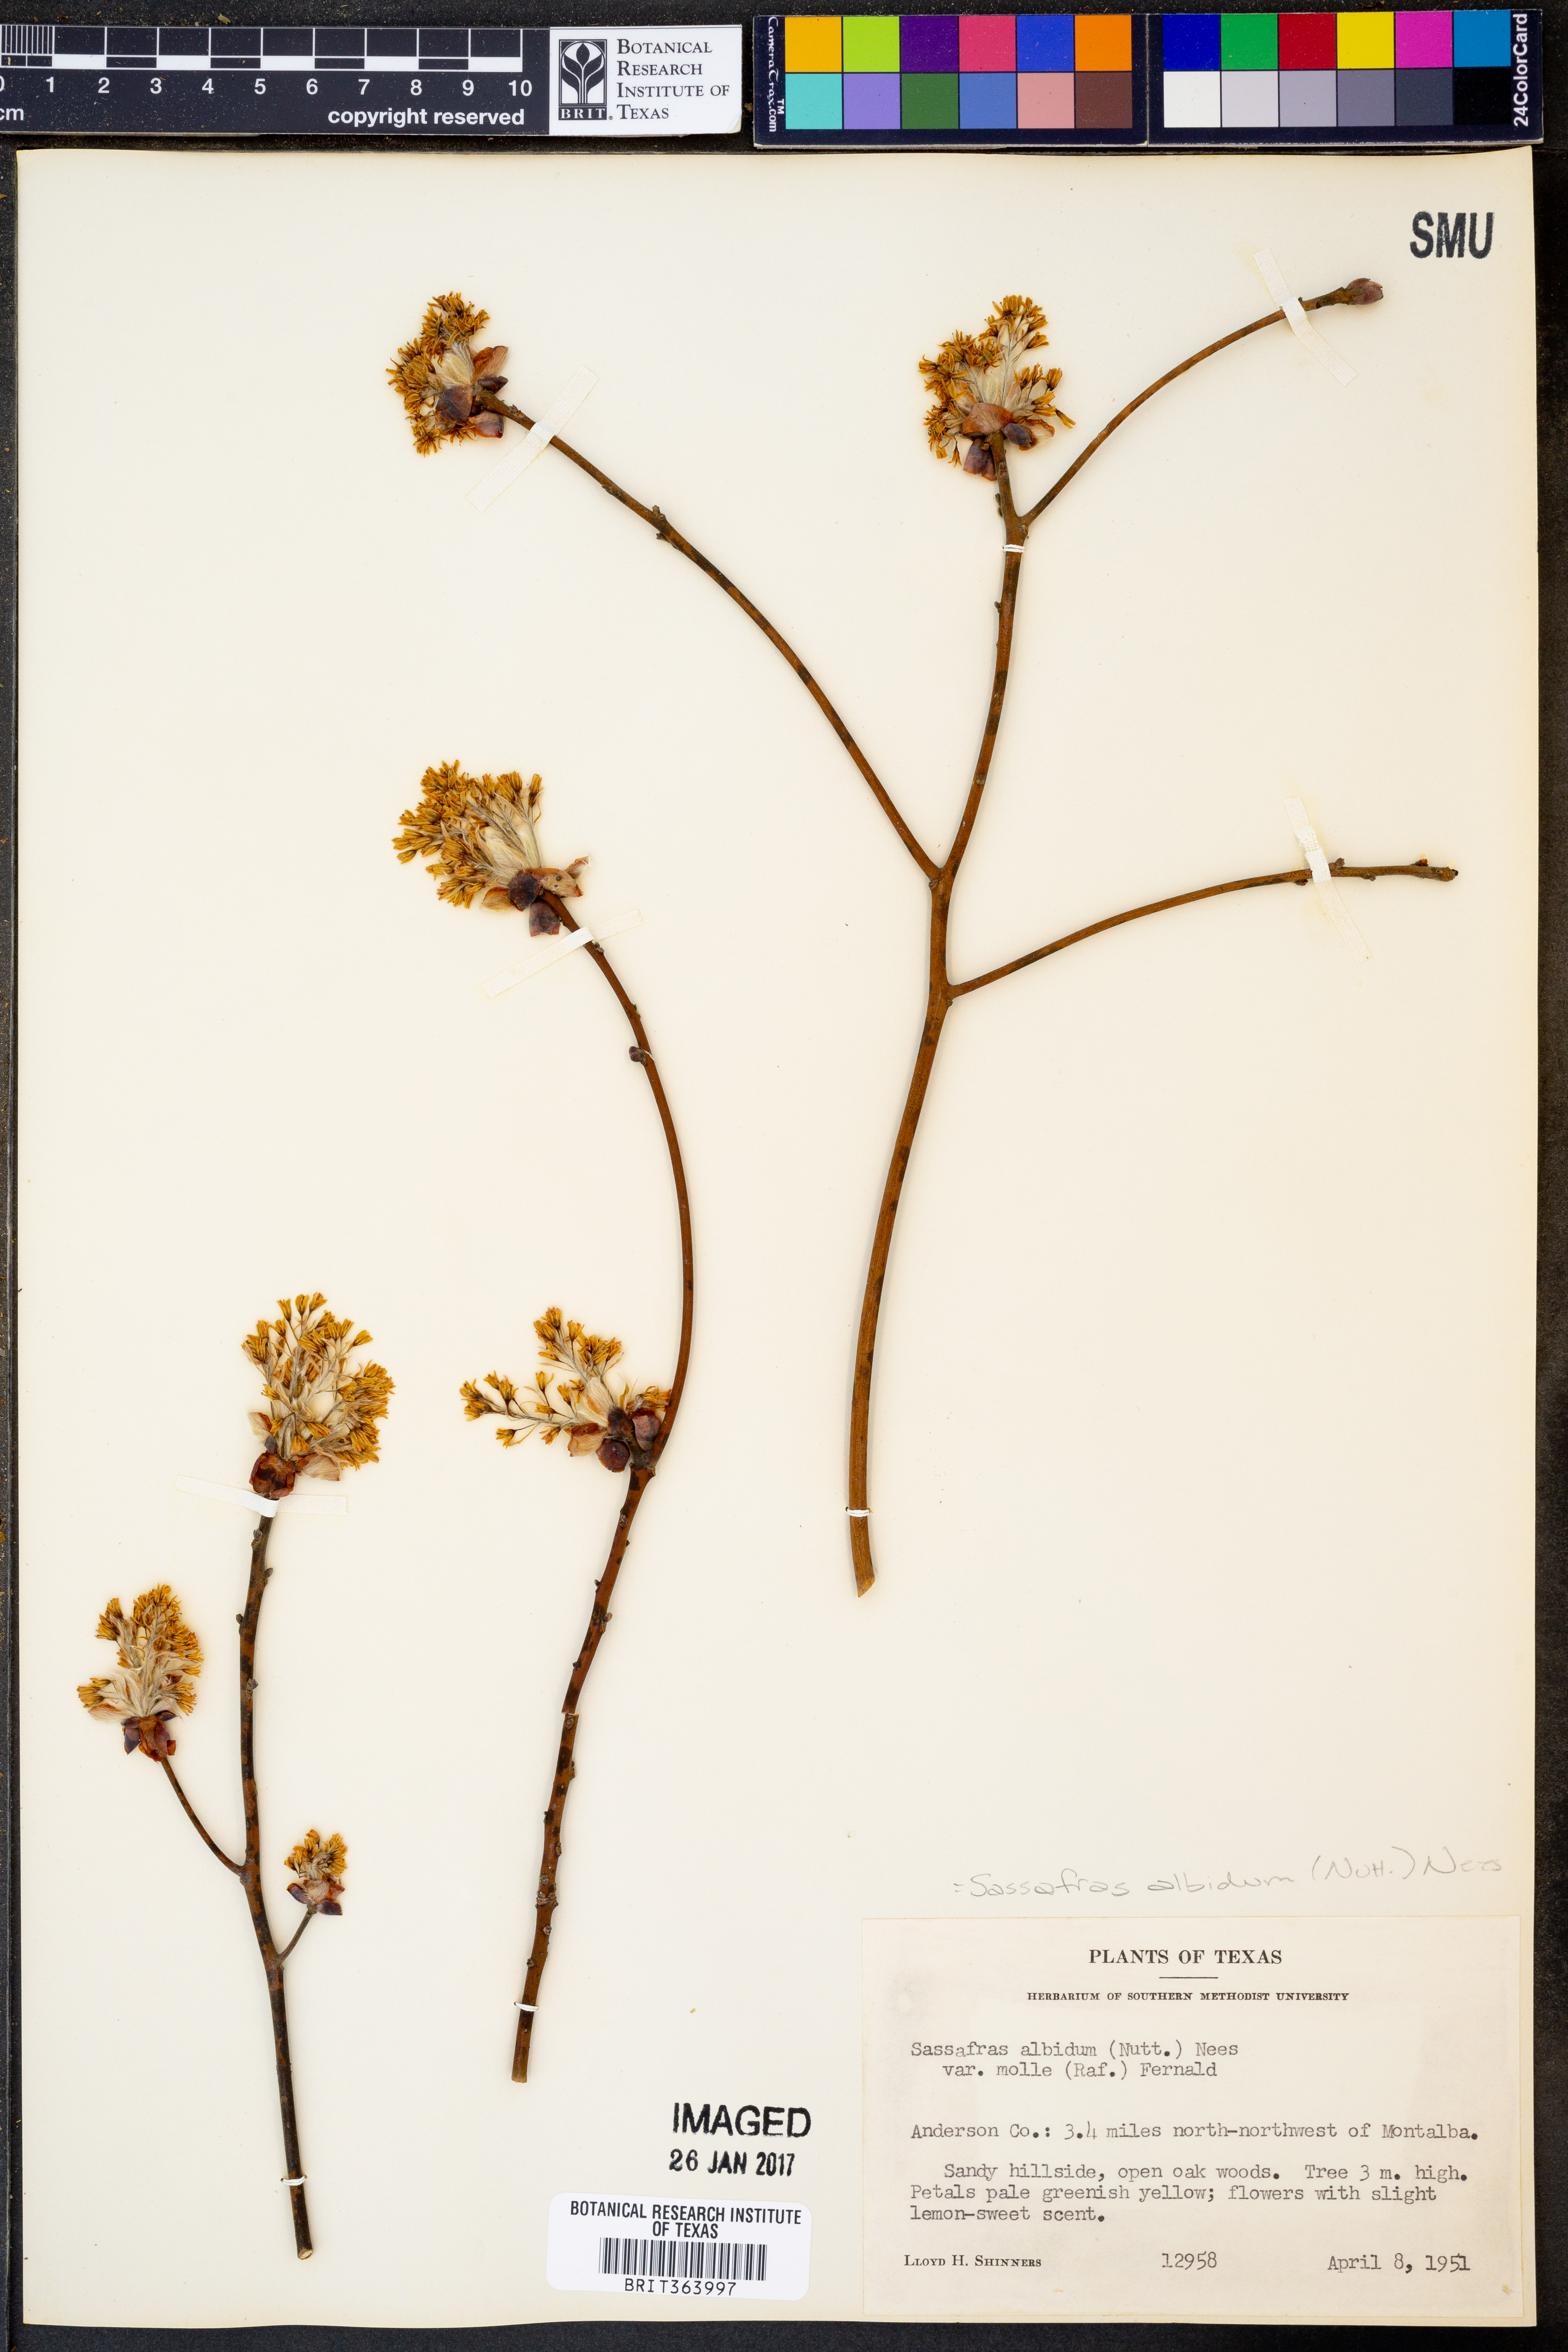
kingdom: Plantae
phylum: Tracheophyta
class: Magnoliopsida
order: Laurales
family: Lauraceae
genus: Sassafras
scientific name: Sassafras albidum
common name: Sassafras
